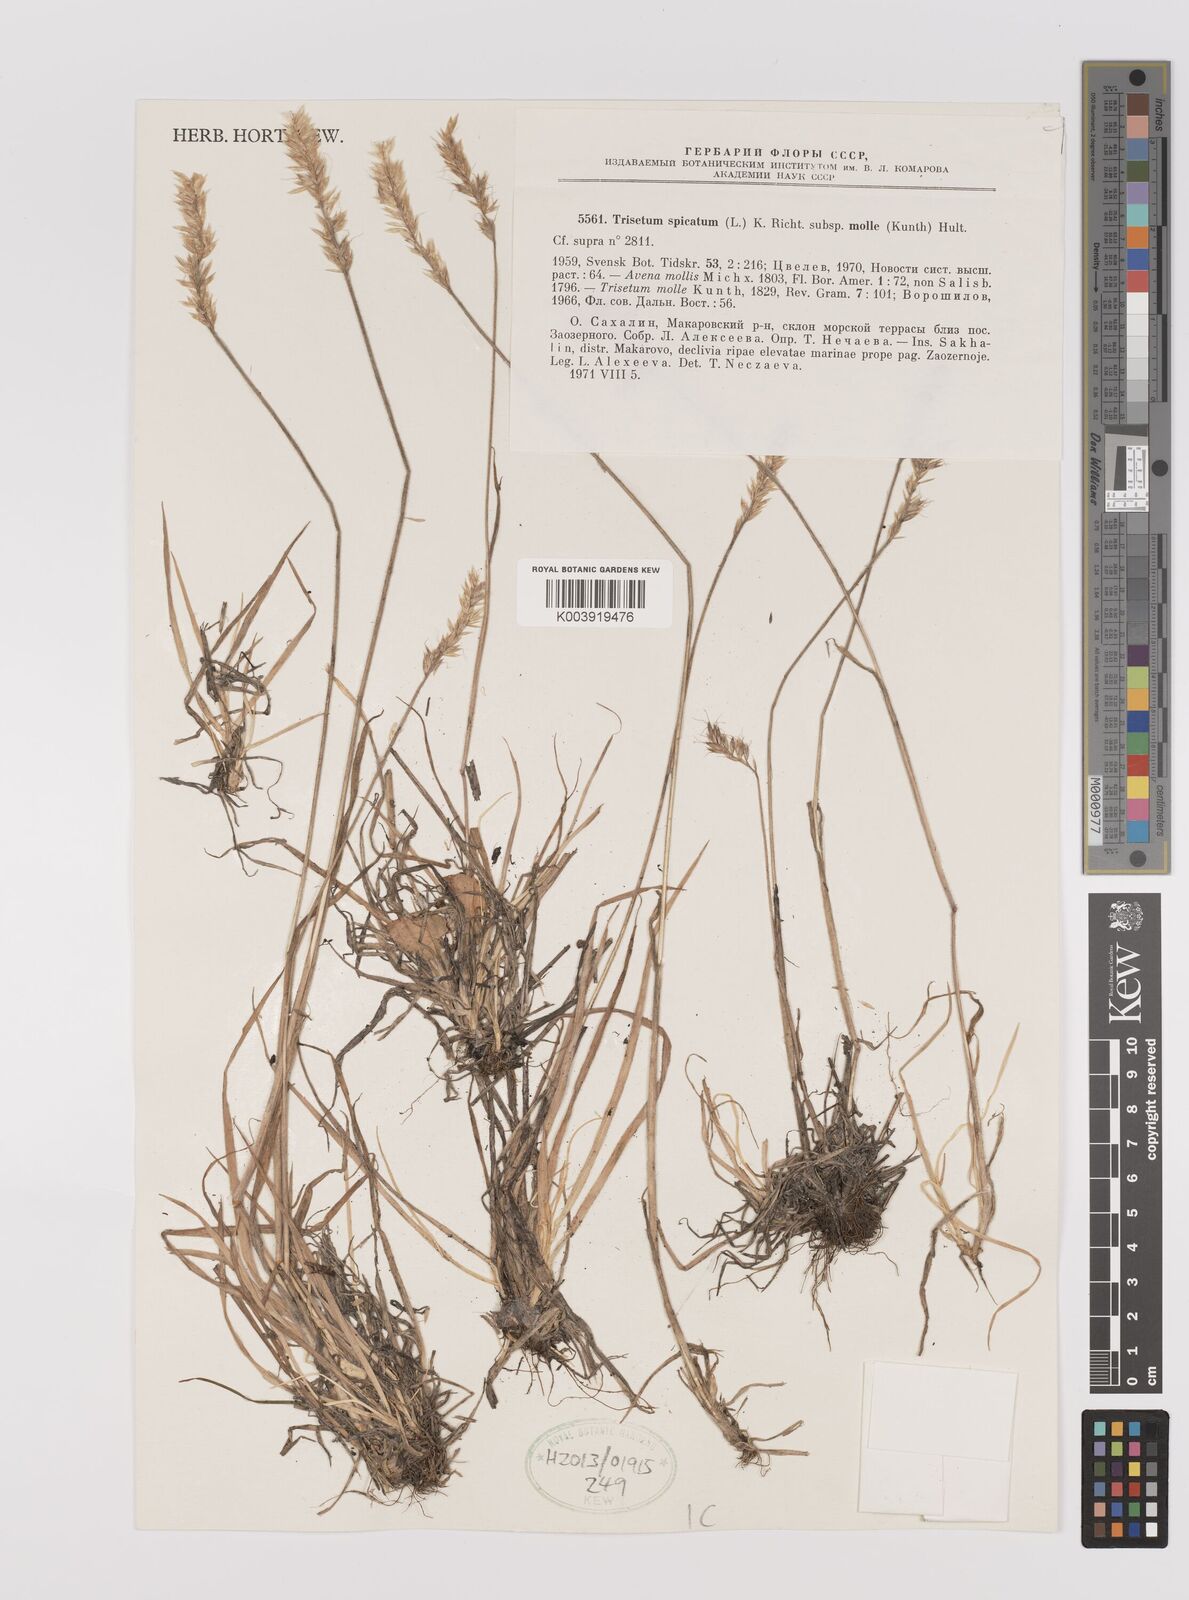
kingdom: Plantae
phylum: Tracheophyta
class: Liliopsida
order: Poales
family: Poaceae
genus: Koeleria
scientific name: Koeleria spicata
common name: Mountain trisetum
